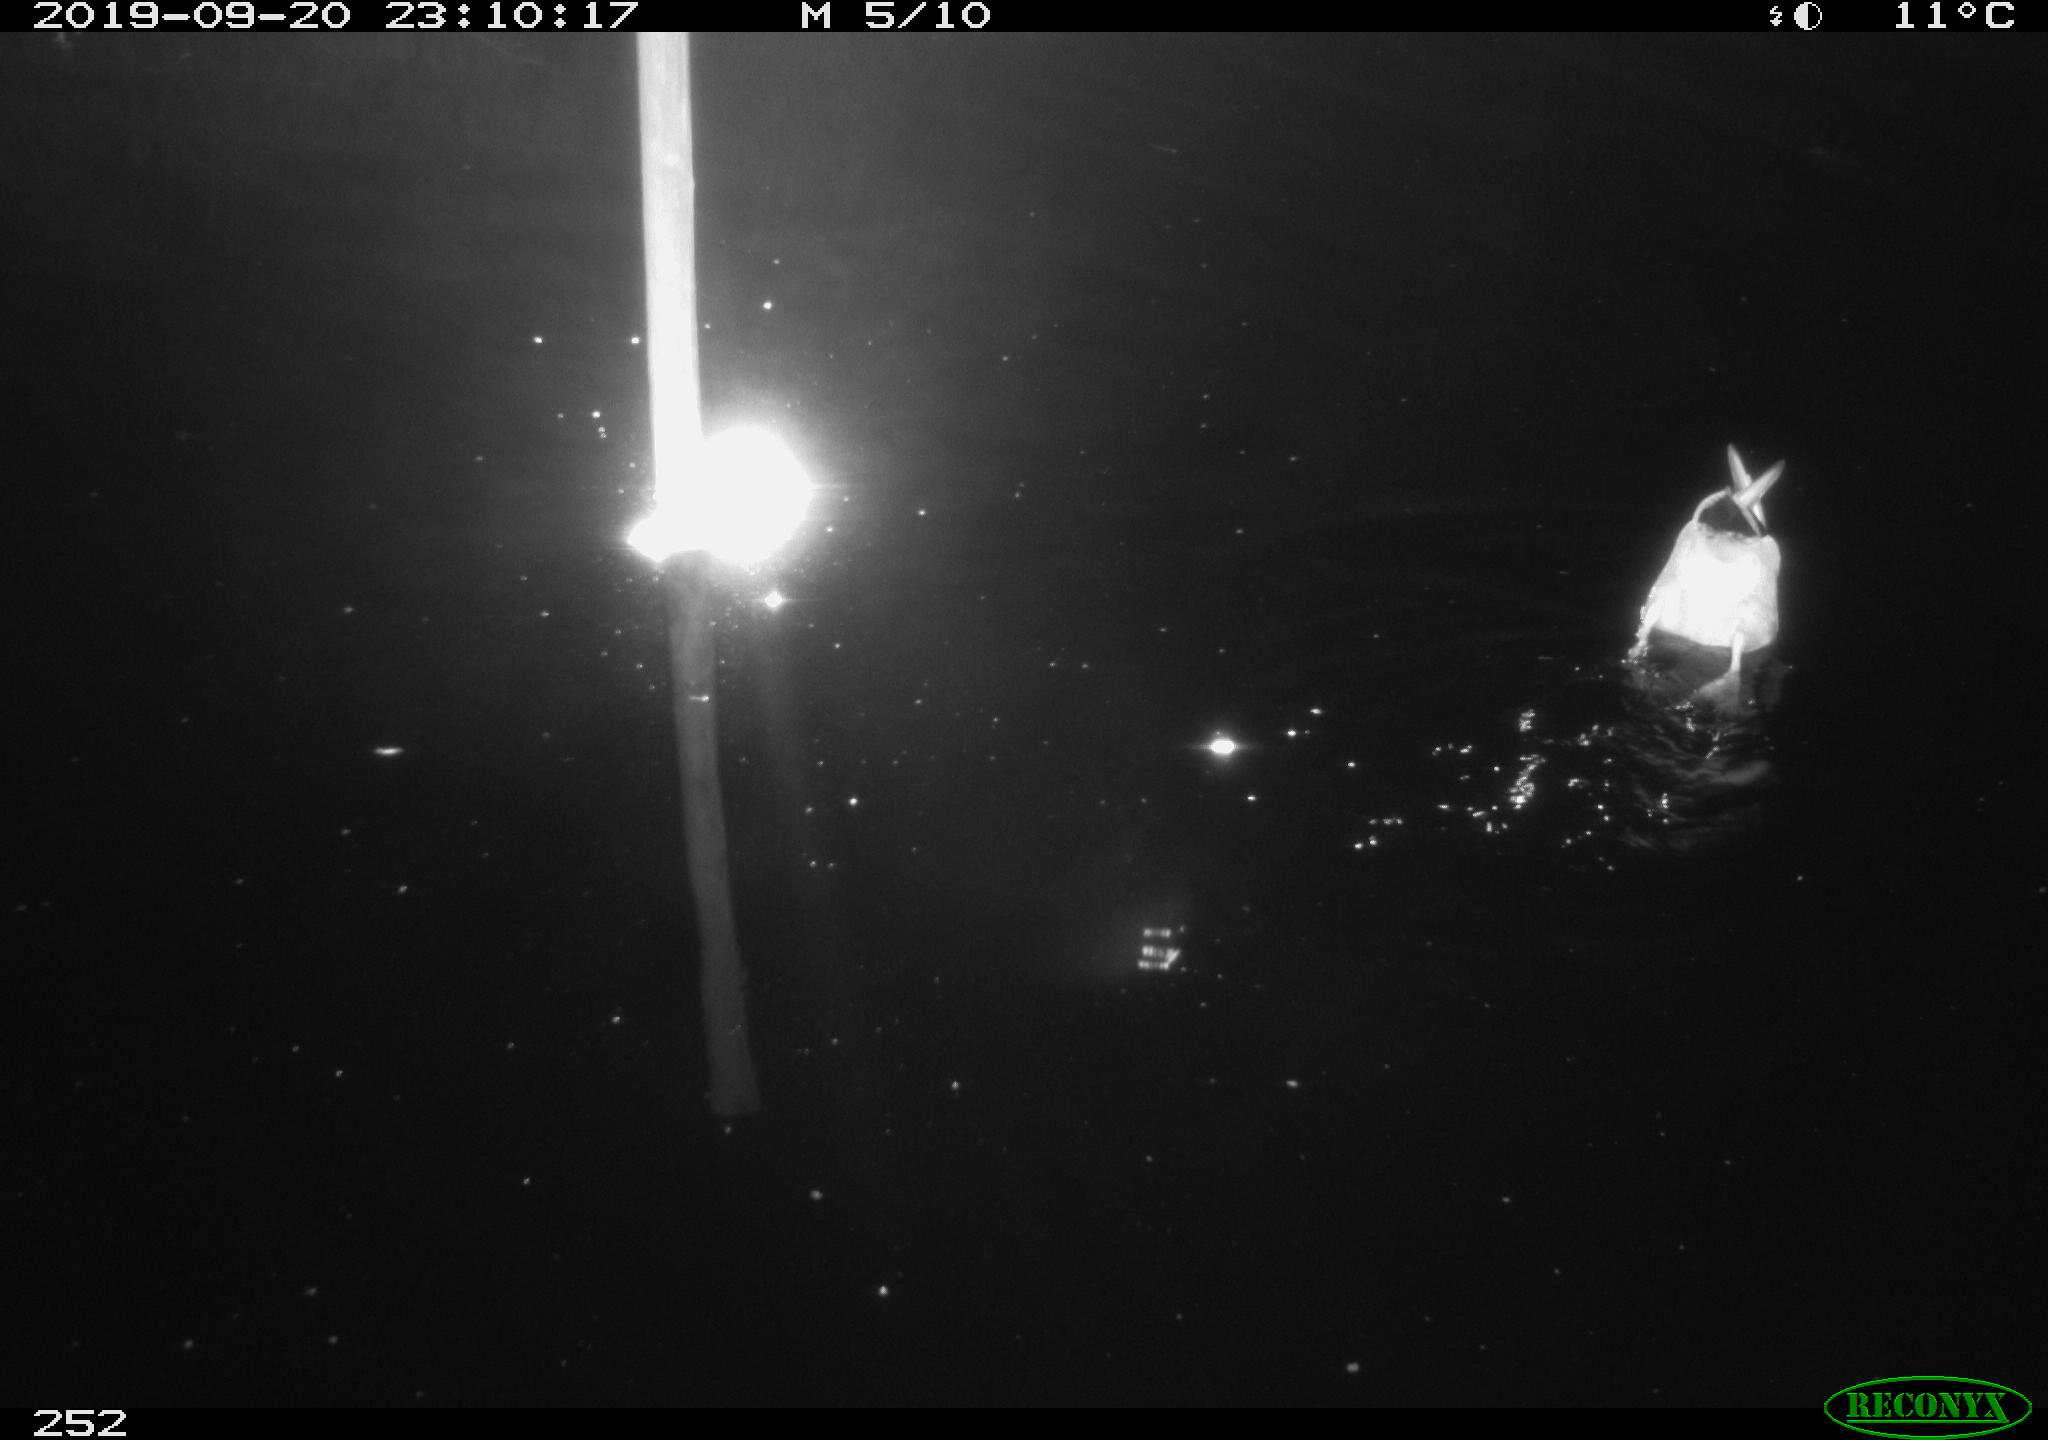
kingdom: Animalia
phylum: Chordata
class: Aves
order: Anseriformes
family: Anatidae
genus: Anas
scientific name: Anas platyrhynchos
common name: Mallard
